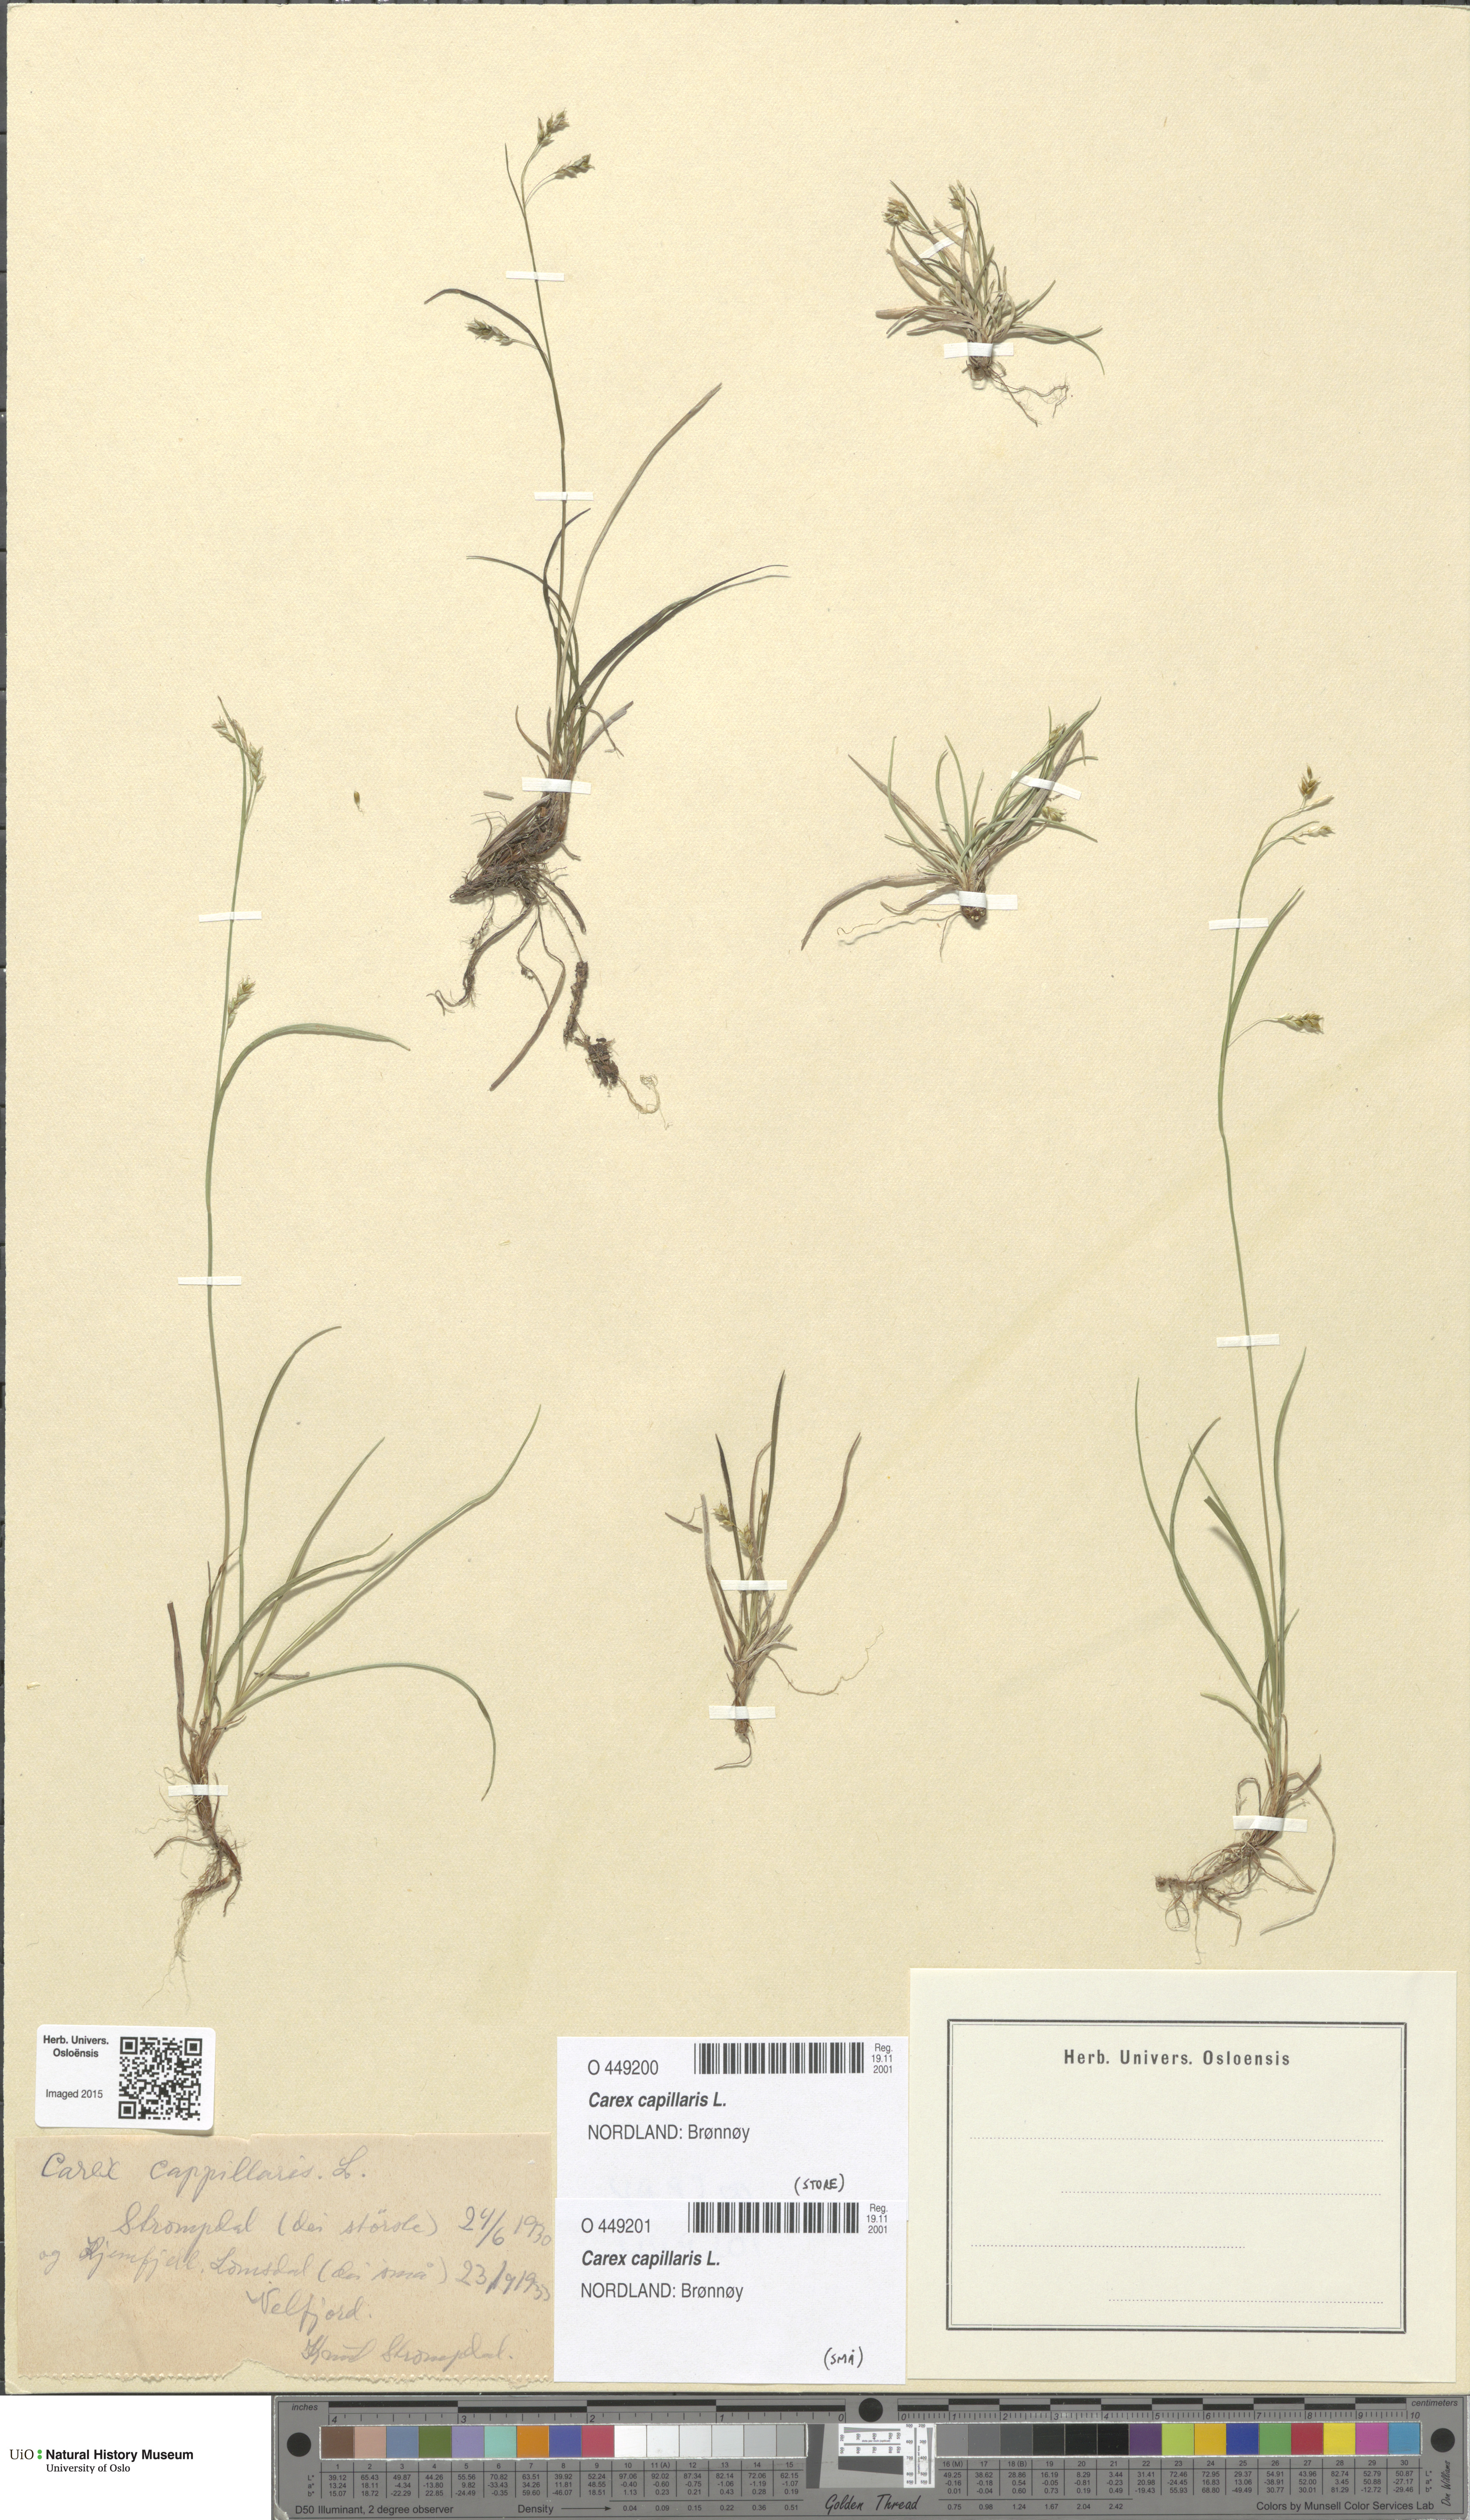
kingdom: Plantae
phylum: Tracheophyta
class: Liliopsida
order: Poales
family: Cyperaceae
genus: Carex
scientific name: Carex capillaris
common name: Hair sedge
